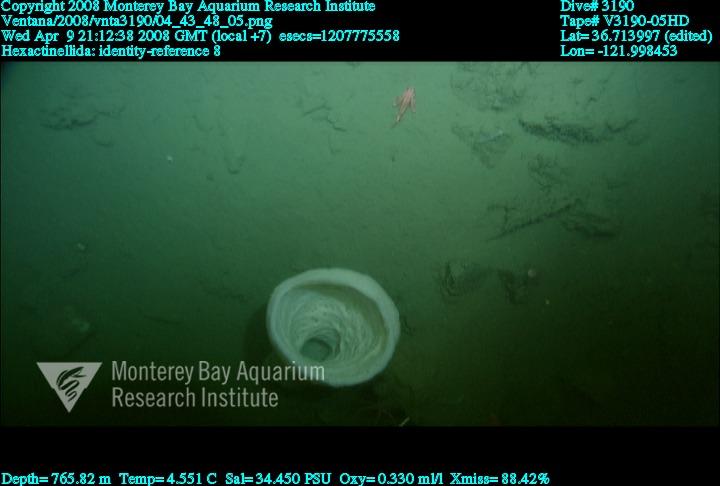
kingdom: Animalia
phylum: Porifera
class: Hexactinellida
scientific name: Hexactinellida
